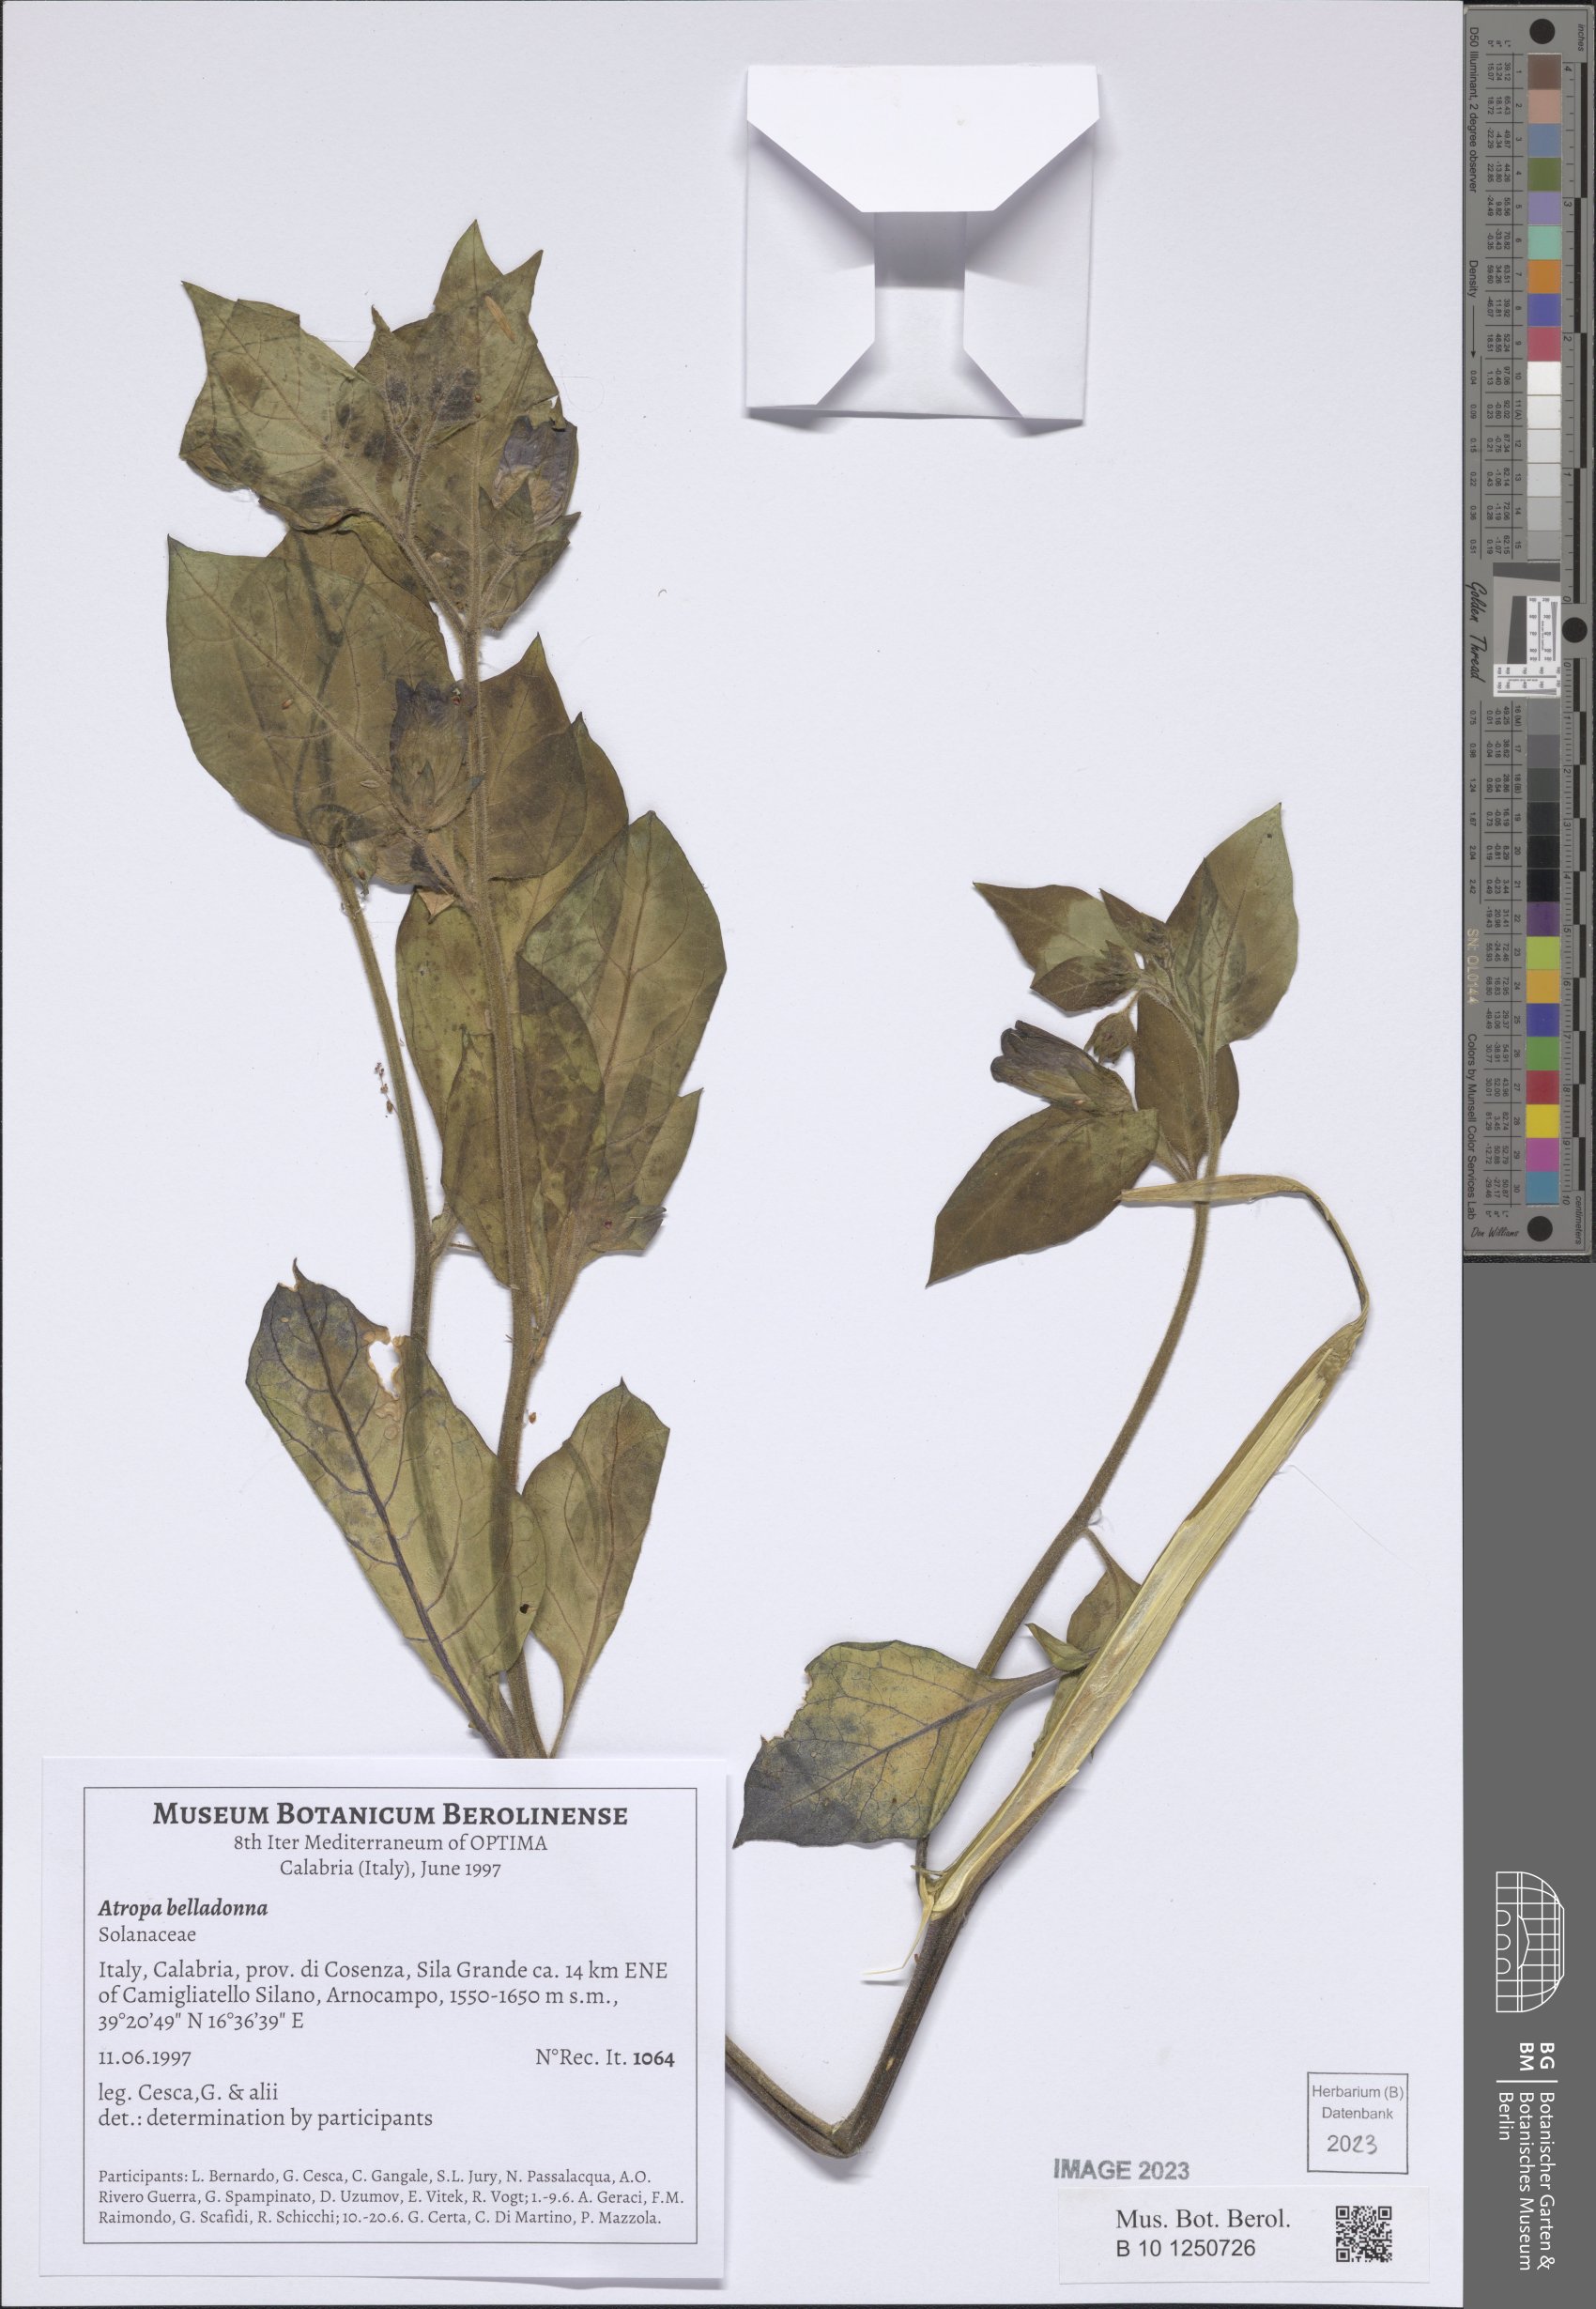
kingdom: Plantae
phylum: Tracheophyta
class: Magnoliopsida
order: Solanales
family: Solanaceae
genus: Atropa
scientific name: Atropa belladonna
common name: Deadly nightshade
